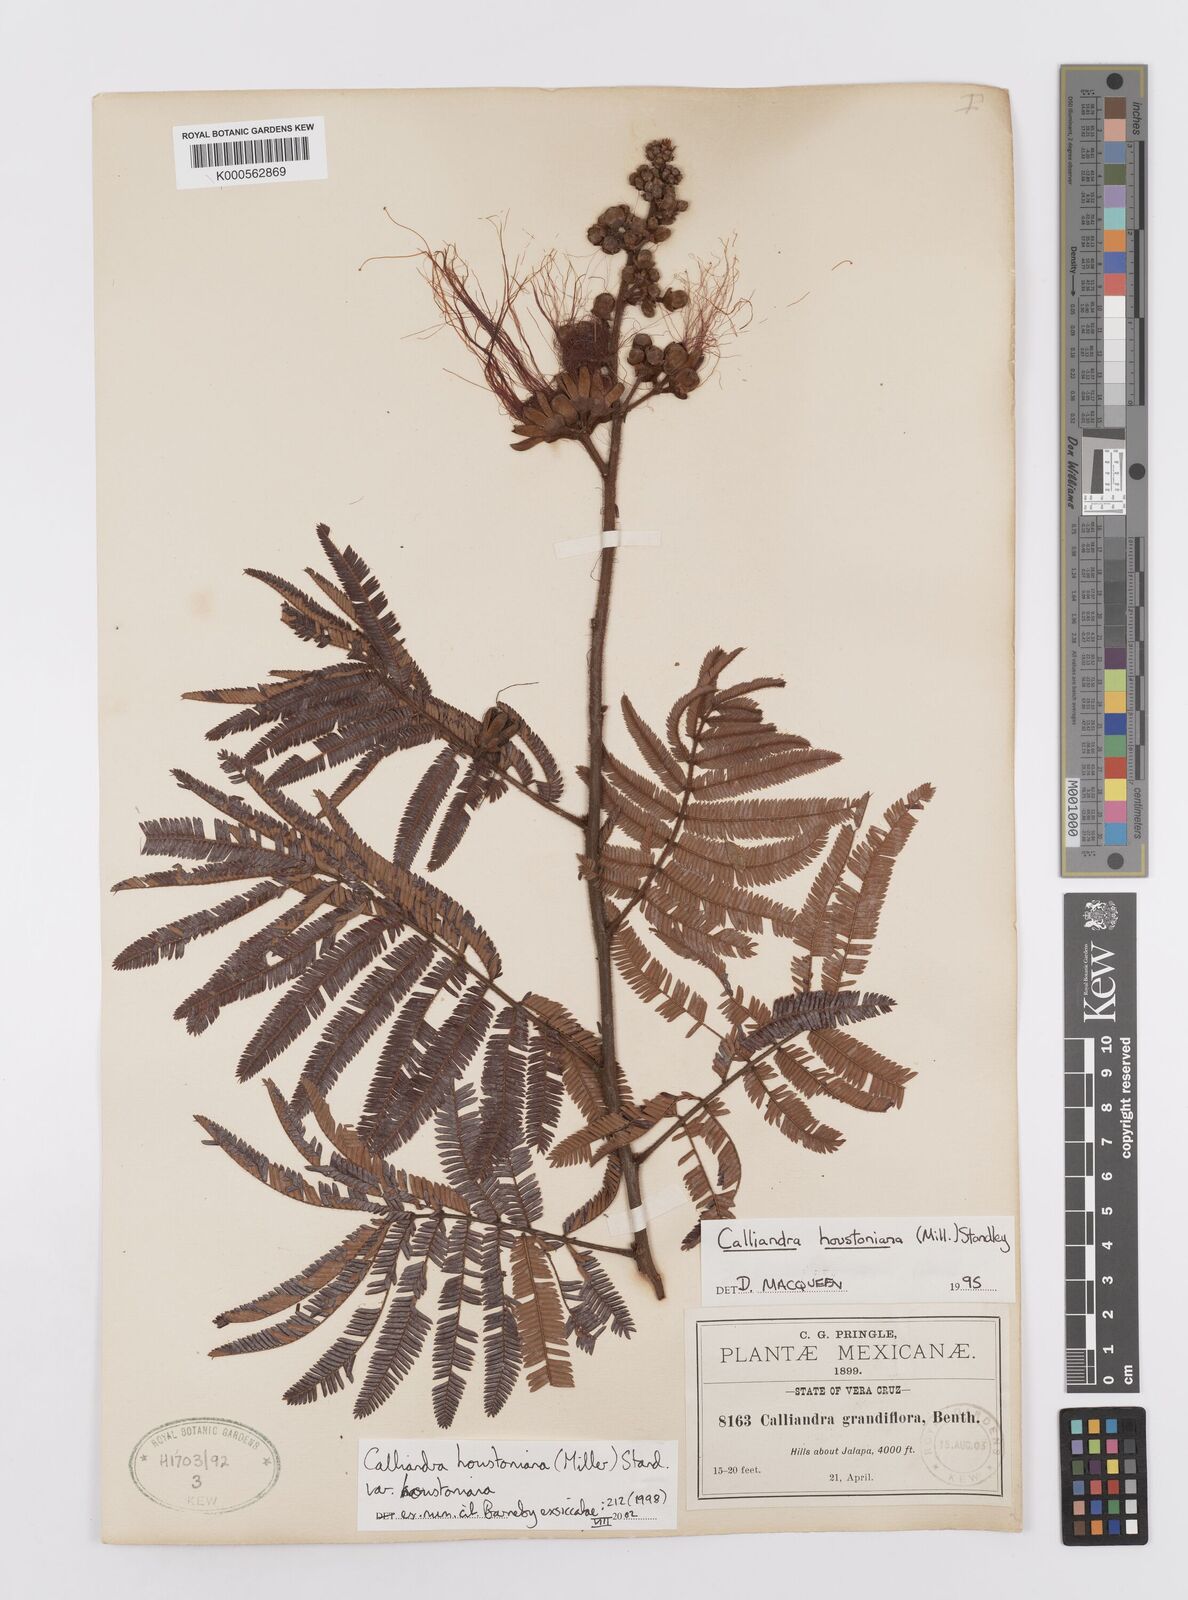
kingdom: Plantae
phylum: Tracheophyta
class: Magnoliopsida
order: Fabales
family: Fabaceae
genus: Calliandra
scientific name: Calliandra houstoniana
